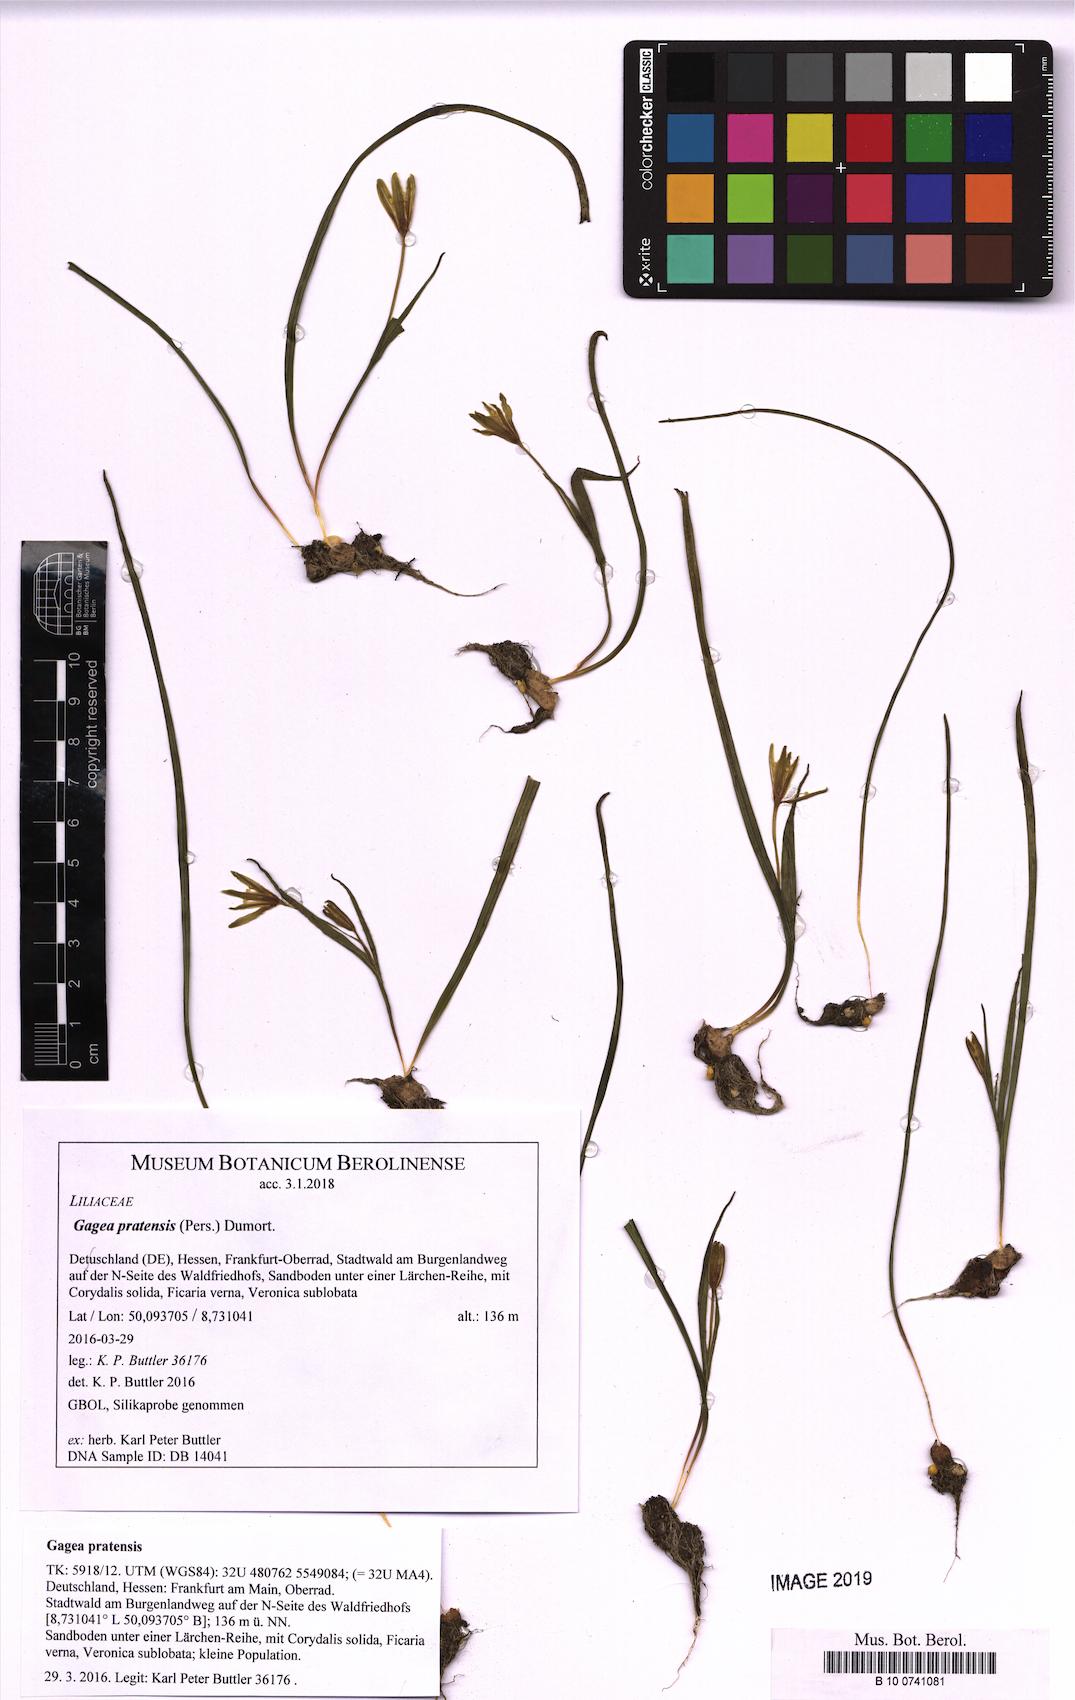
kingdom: Plantae
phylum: Tracheophyta
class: Liliopsida
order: Liliales
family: Liliaceae
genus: Gagea
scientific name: Gagea pratensis
